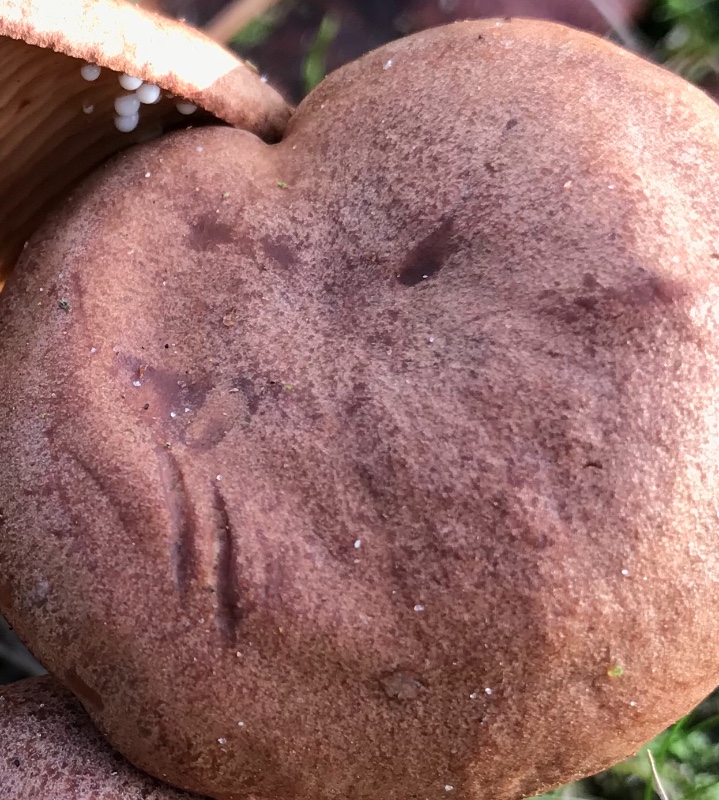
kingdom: Fungi
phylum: Basidiomycota
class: Agaricomycetes
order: Russulales
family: Russulaceae
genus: Lactarius
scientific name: Lactarius quietus
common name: ege-mælkehat
